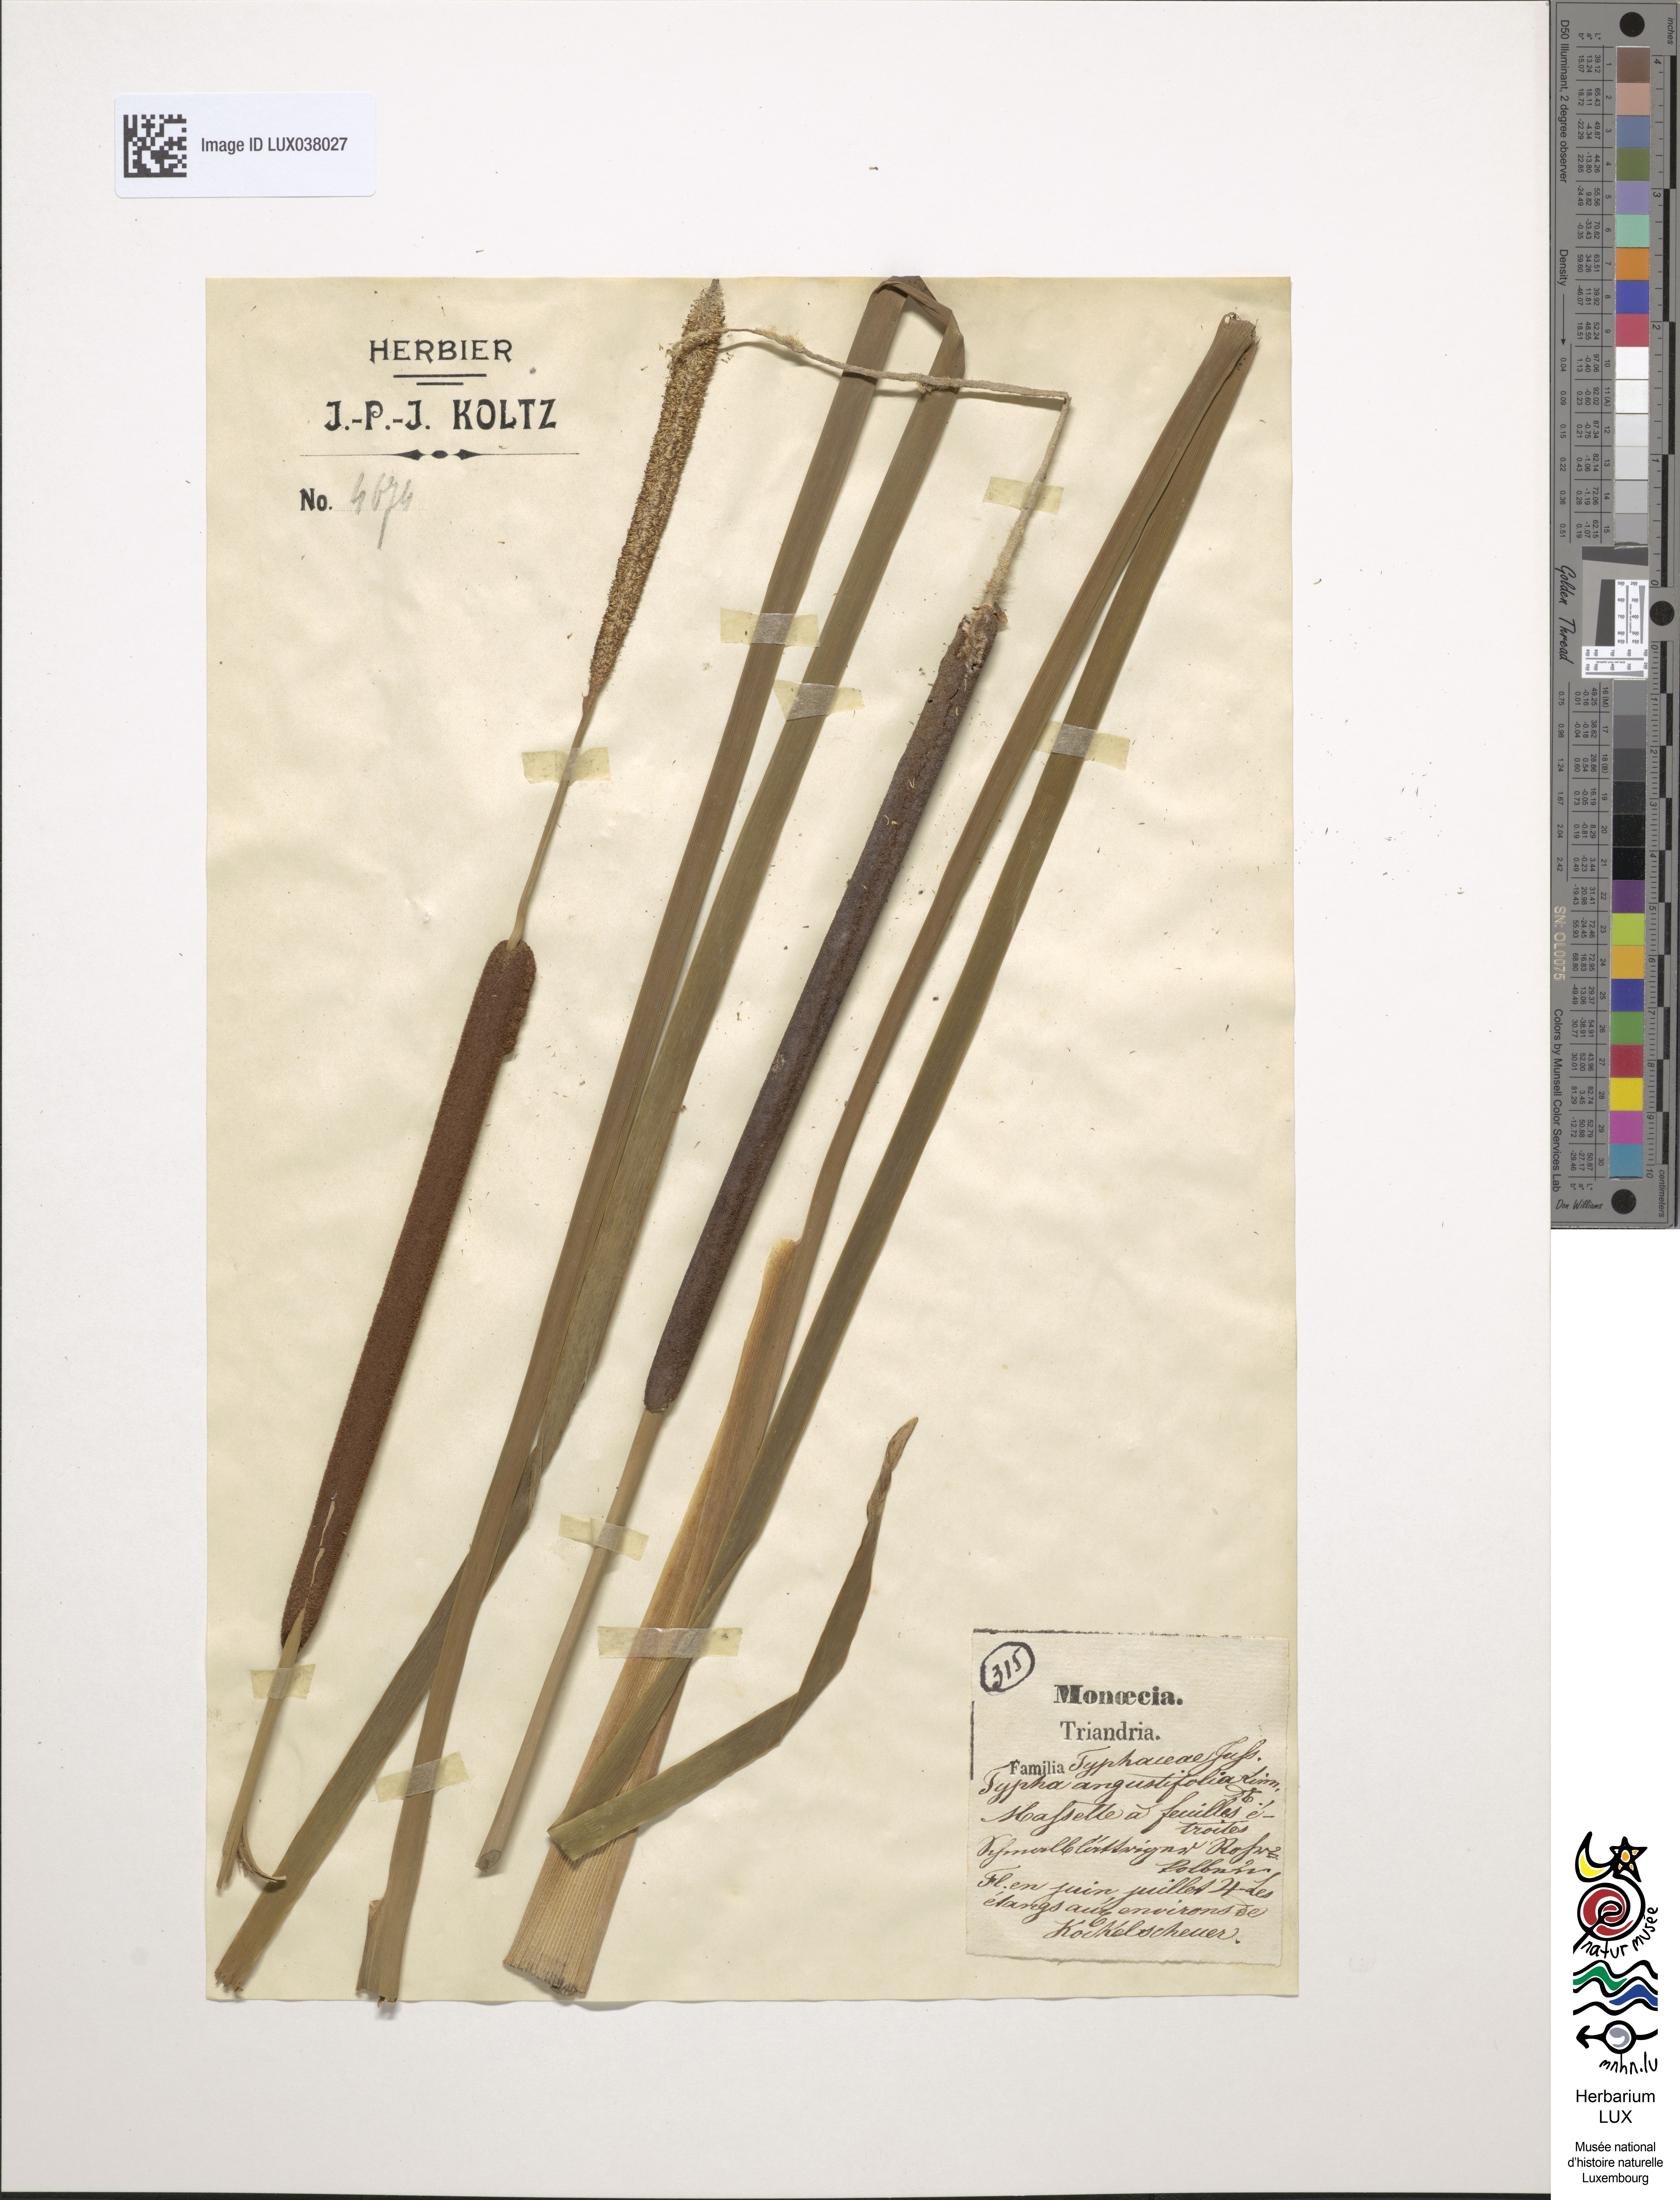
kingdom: Plantae
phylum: Tracheophyta
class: Liliopsida
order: Poales
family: Typhaceae
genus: Typha
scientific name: Typha angustifolia
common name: Lesser bulrush
